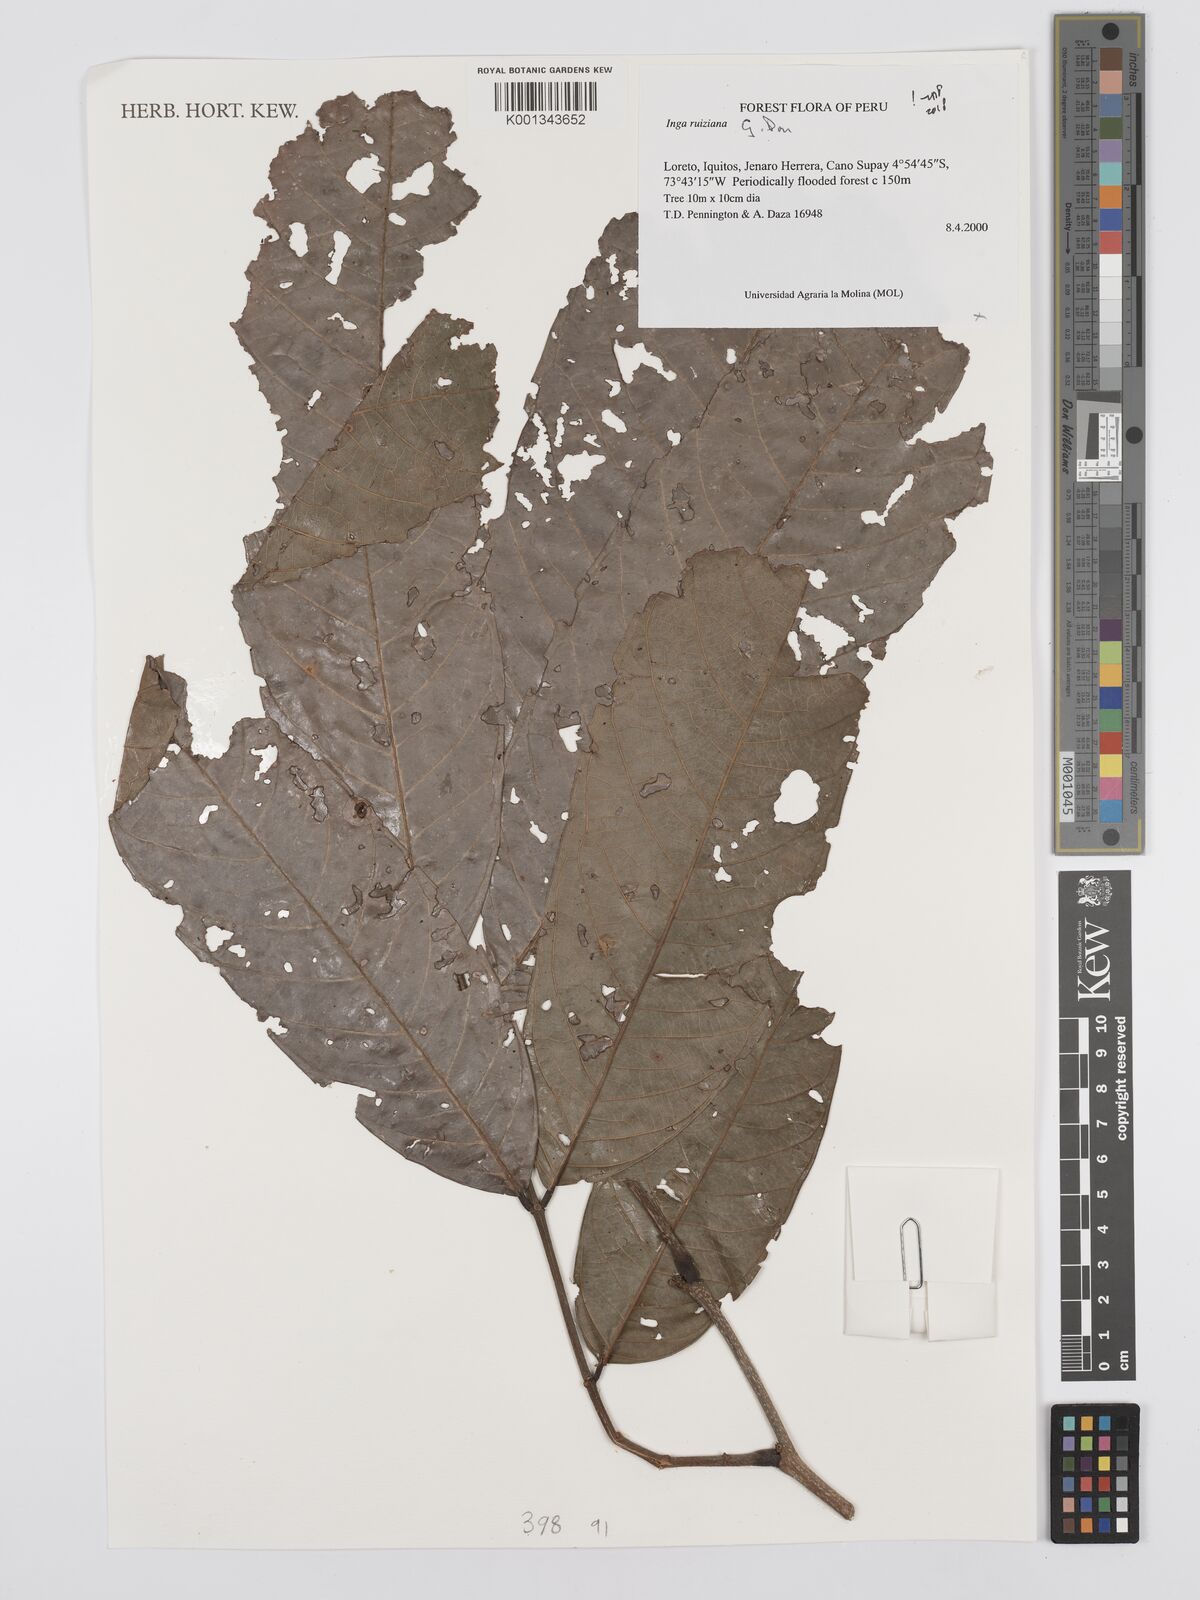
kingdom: Plantae
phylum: Tracheophyta
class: Magnoliopsida
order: Fabales
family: Fabaceae
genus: Inga
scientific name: Inga ruiziana
